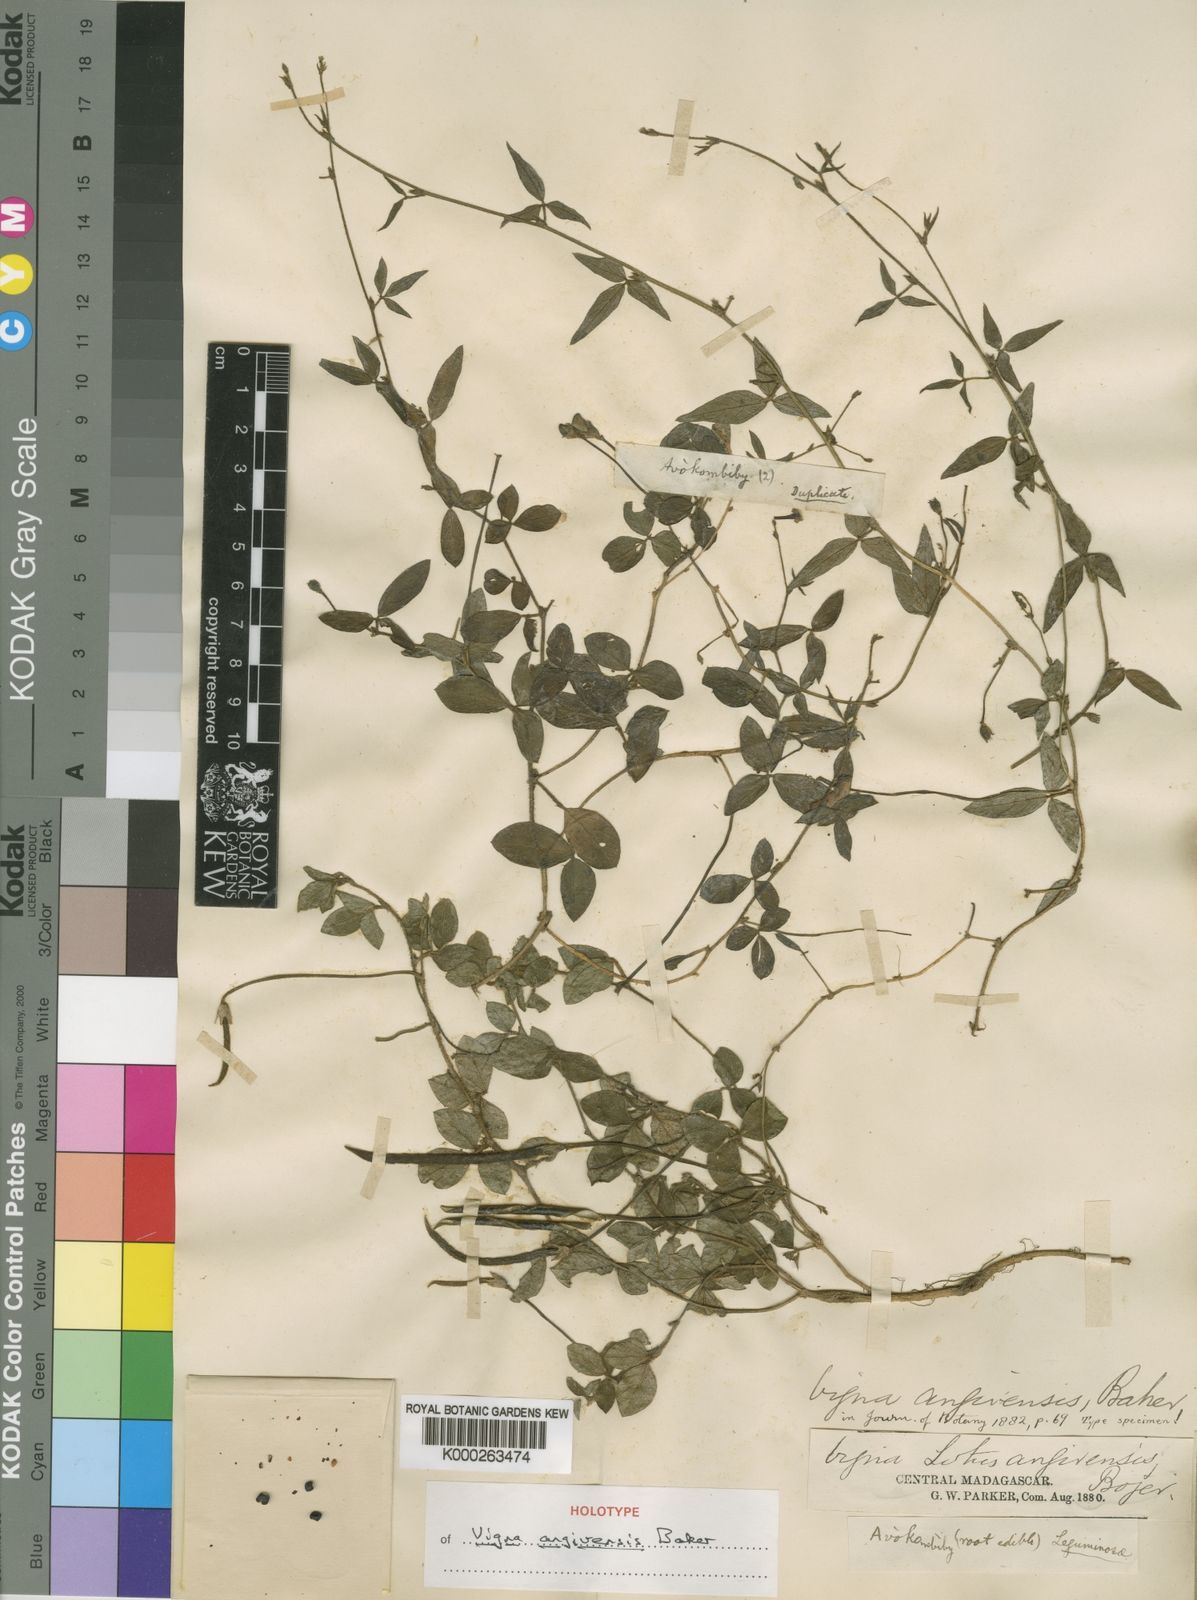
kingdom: Plantae
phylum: Tracheophyta
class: Magnoliopsida
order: Fabales
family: Fabaceae
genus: Vigna
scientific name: Vigna angivensis
